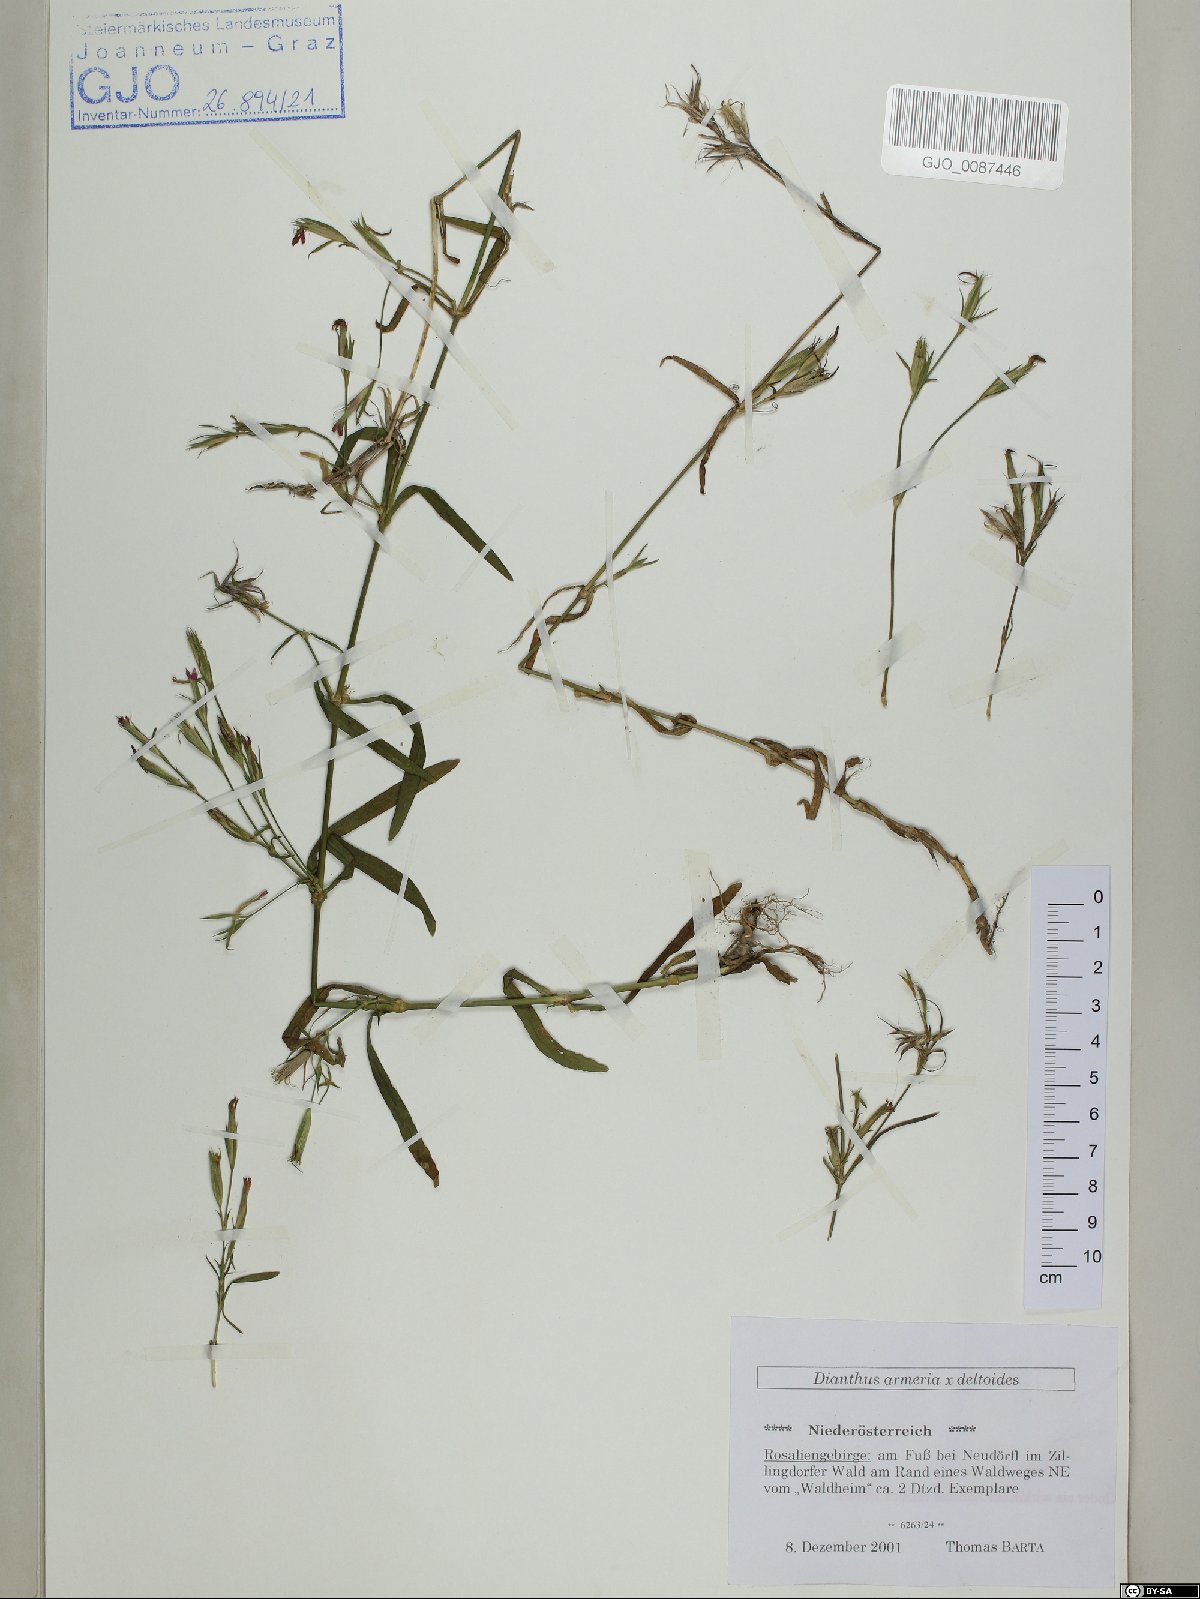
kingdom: Plantae
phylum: Tracheophyta
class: Magnoliopsida
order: Caryophyllales
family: Caryophyllaceae
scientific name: Caryophyllaceae
